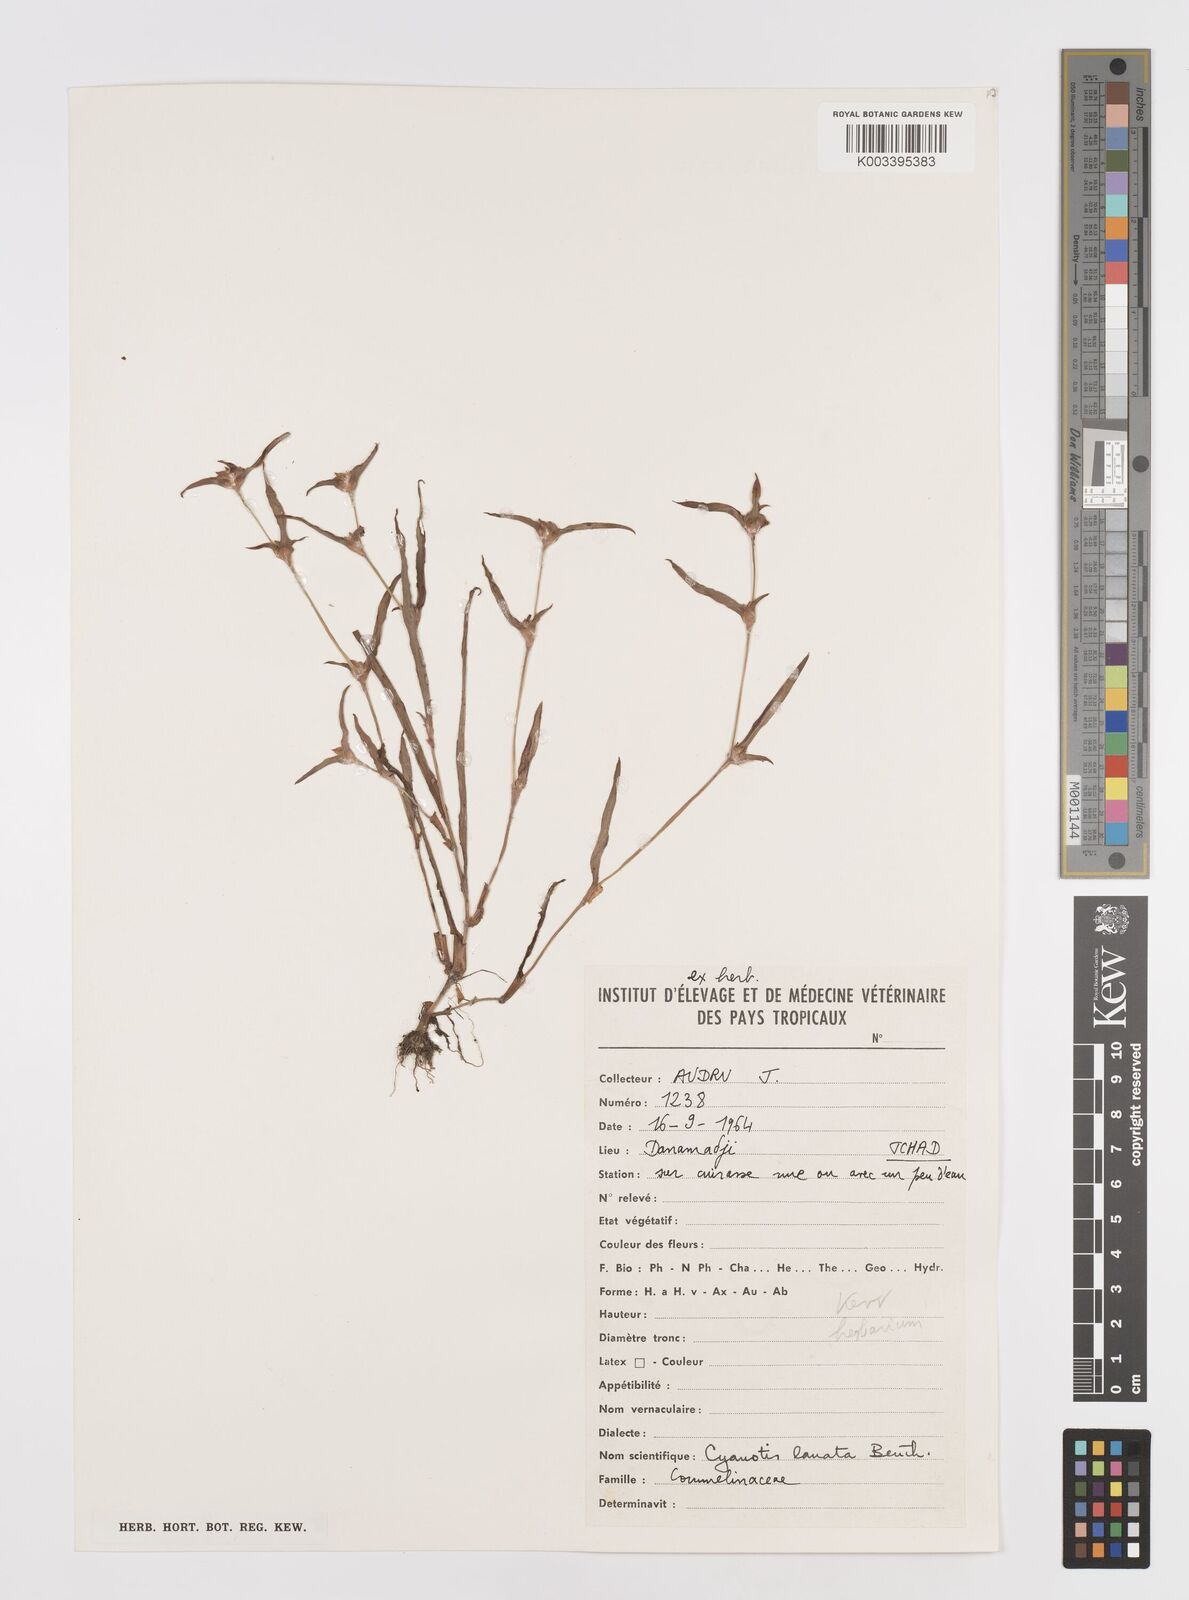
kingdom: Plantae
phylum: Tracheophyta
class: Liliopsida
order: Commelinales
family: Commelinaceae
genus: Cyanotis
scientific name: Cyanotis lanata
